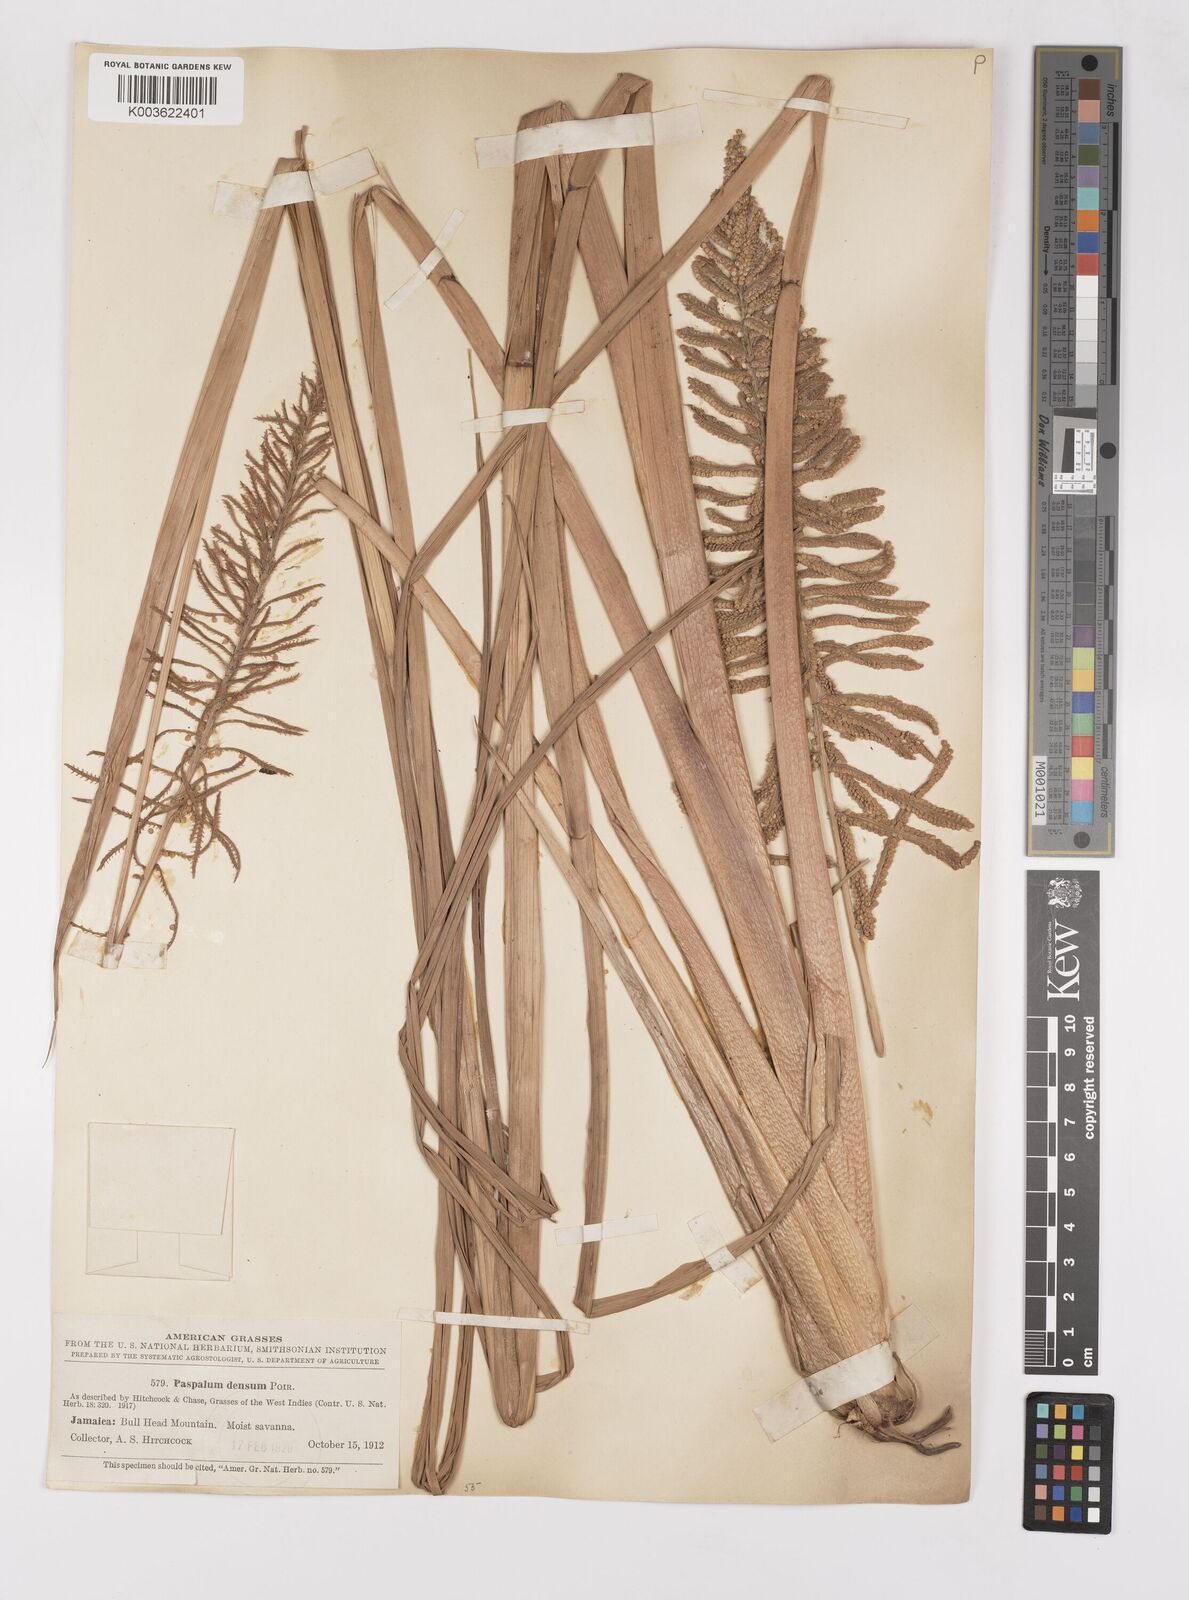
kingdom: Plantae
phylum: Tracheophyta
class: Liliopsida
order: Poales
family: Poaceae
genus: Paspalum
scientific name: Paspalum densum
